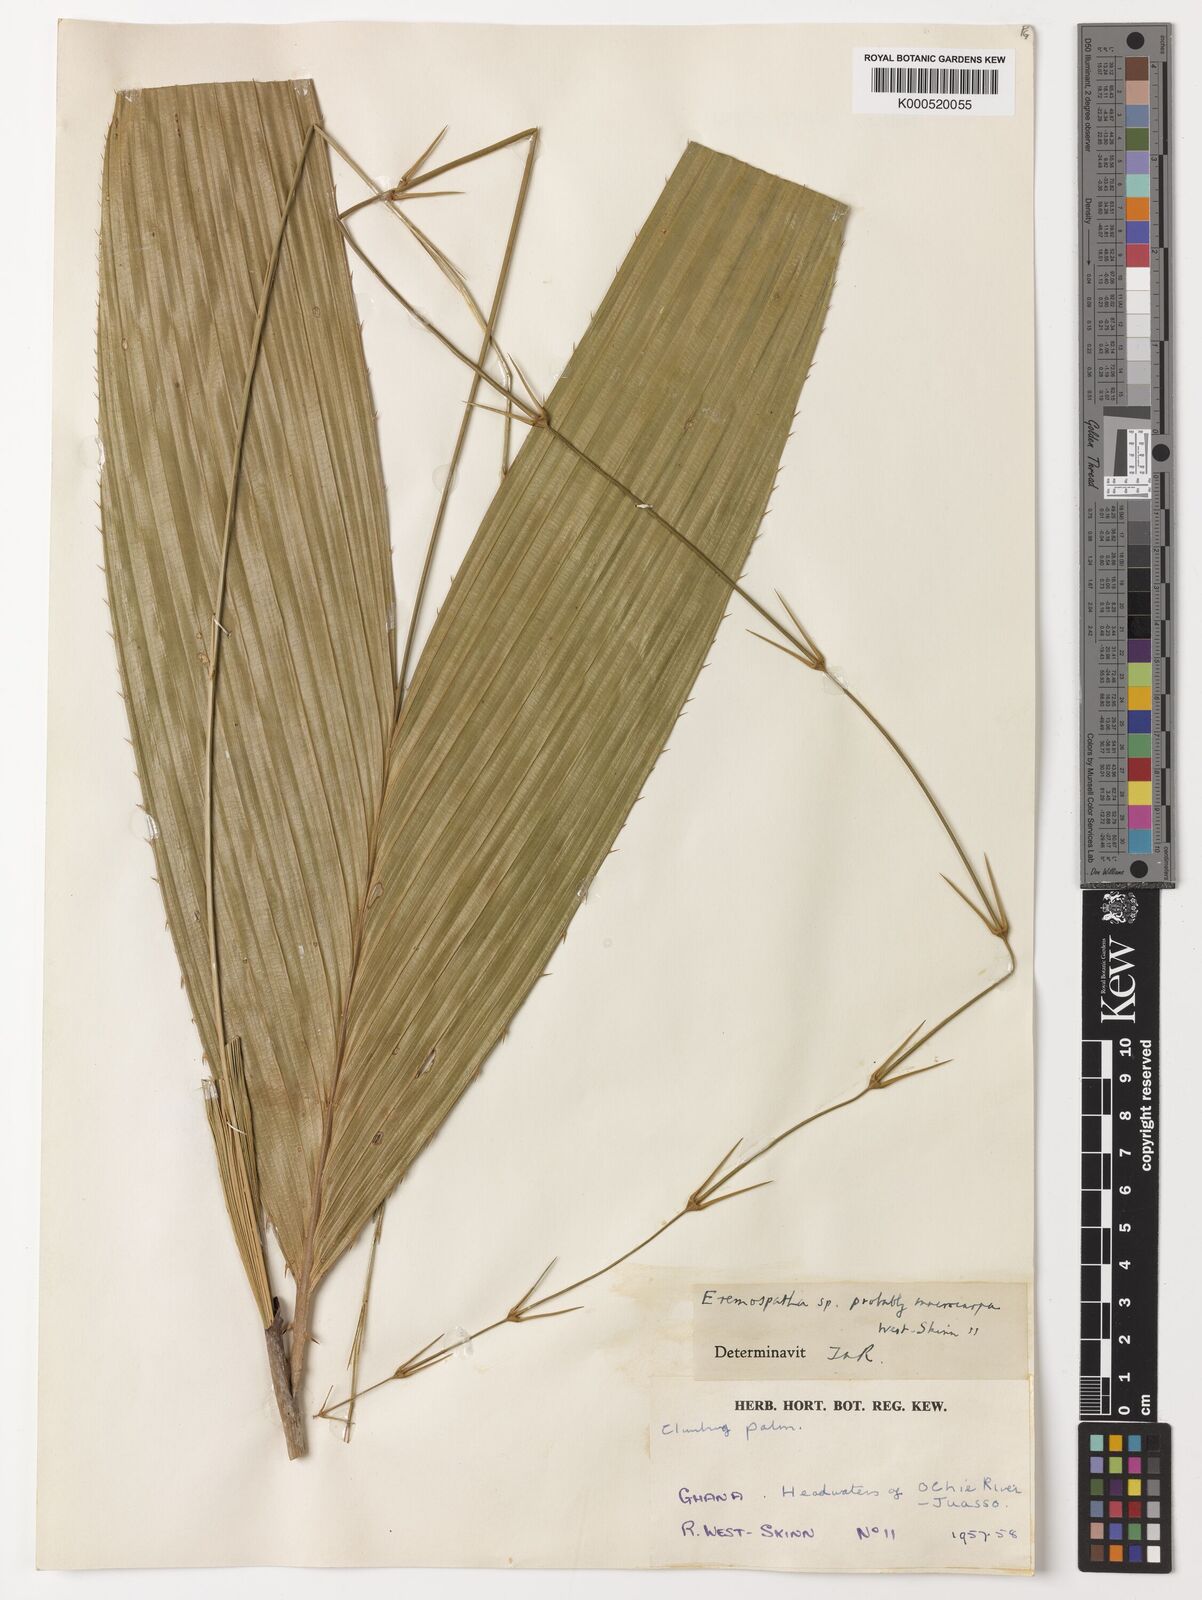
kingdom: Plantae
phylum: Tracheophyta
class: Liliopsida
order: Arecales
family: Arecaceae
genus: Eremospatha
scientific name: Eremospatha
